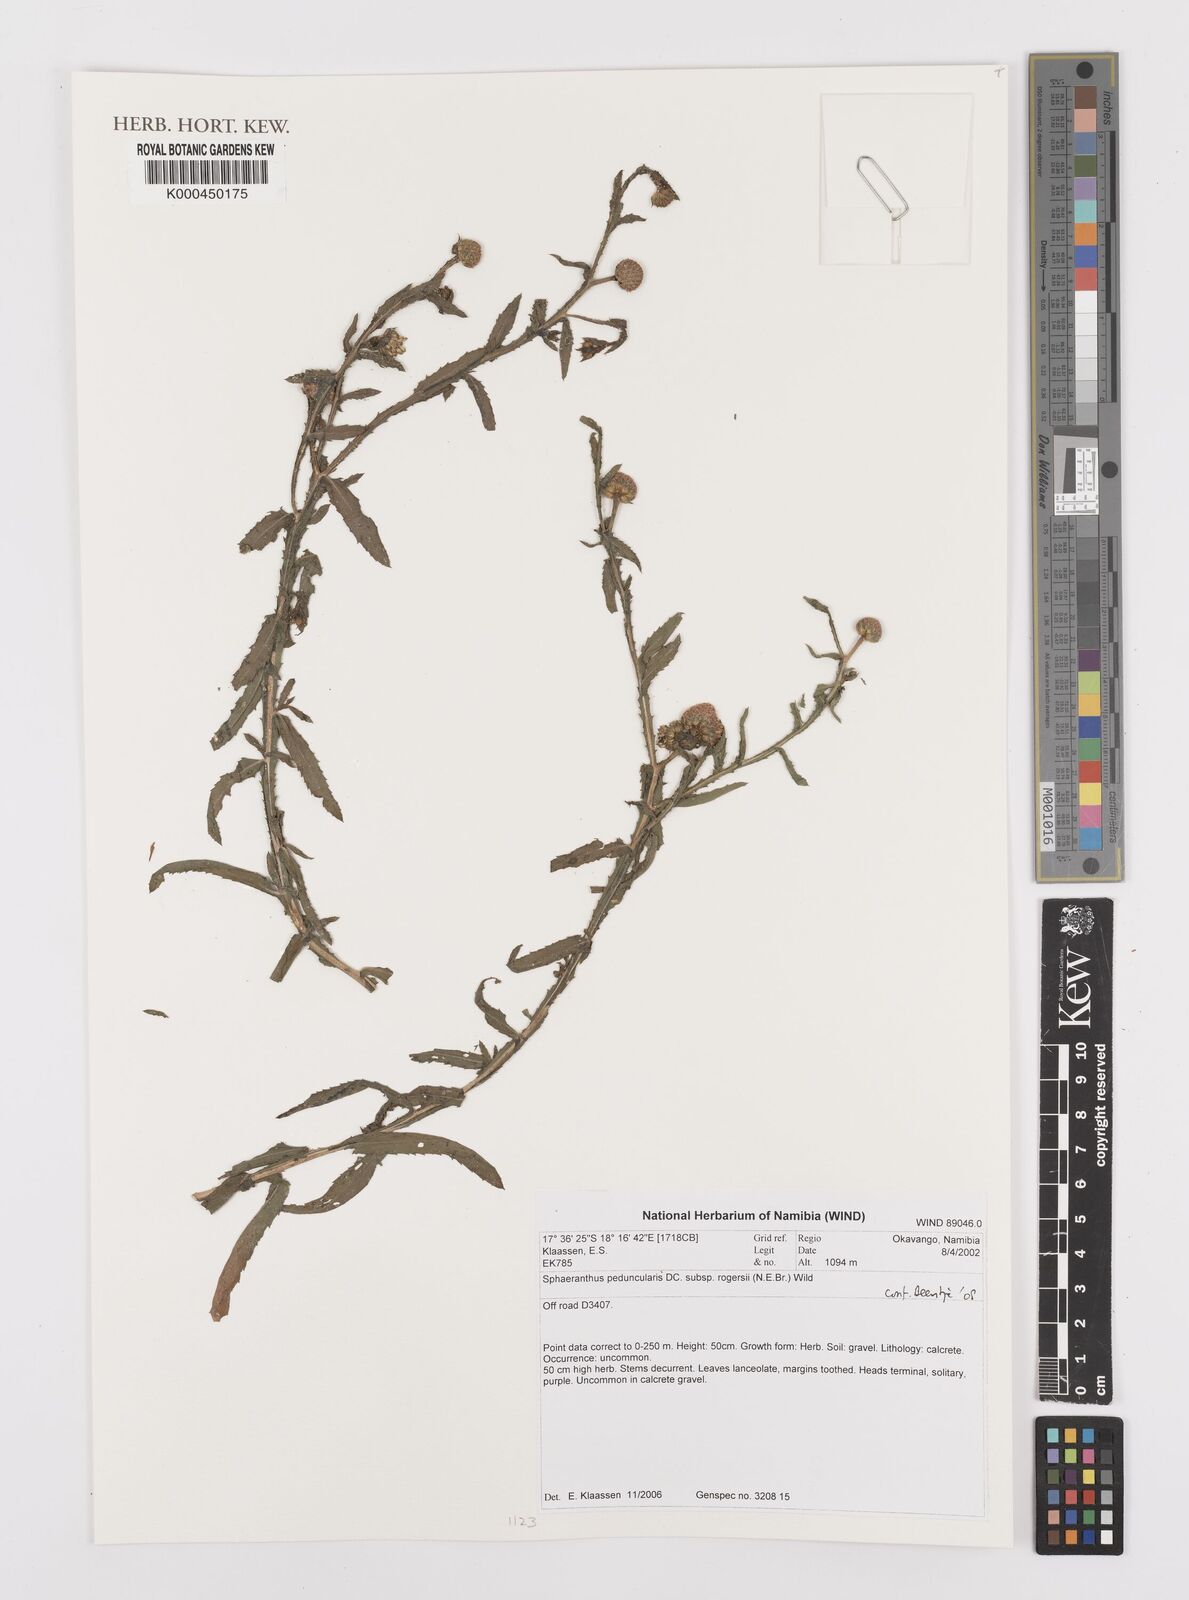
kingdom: Plantae
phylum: Tracheophyta
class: Magnoliopsida
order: Asterales
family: Asteraceae
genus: Sphaeranthus
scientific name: Sphaeranthus peduncularis
